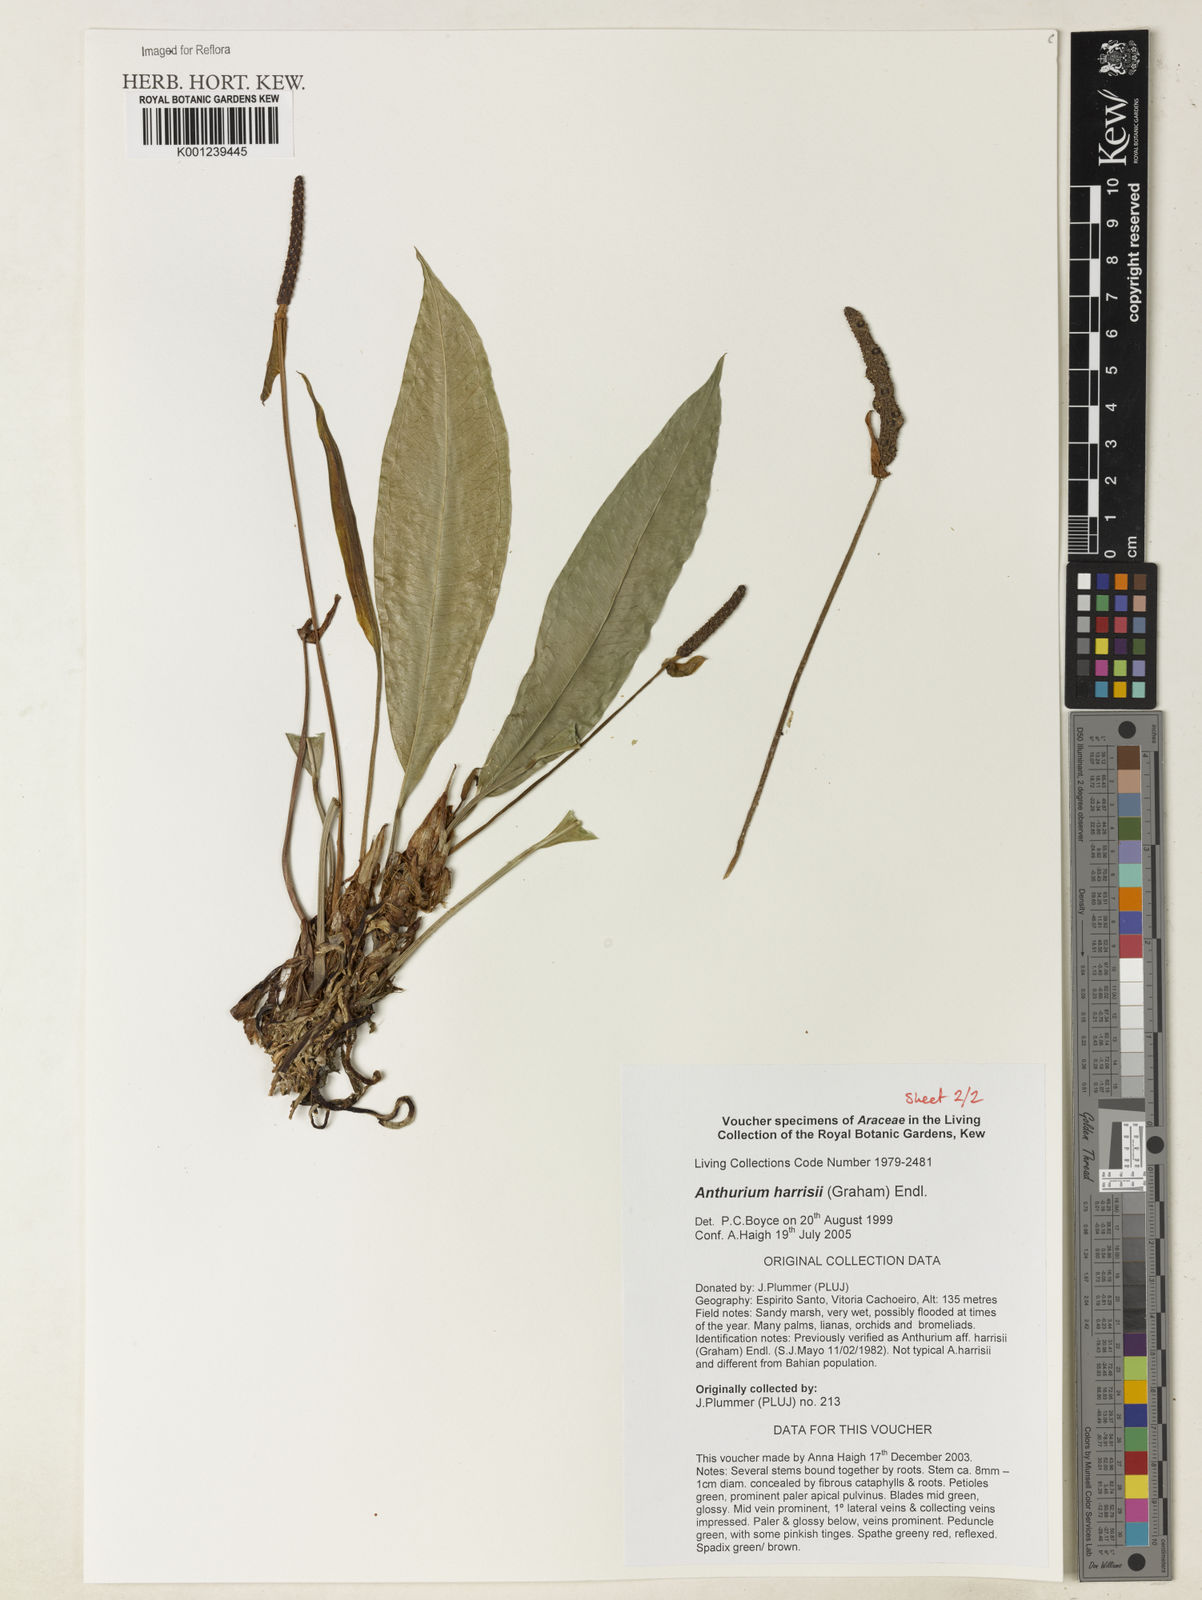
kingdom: Plantae
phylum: Tracheophyta
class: Liliopsida
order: Alismatales
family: Araceae
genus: Anthurium
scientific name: Anthurium harrisii
